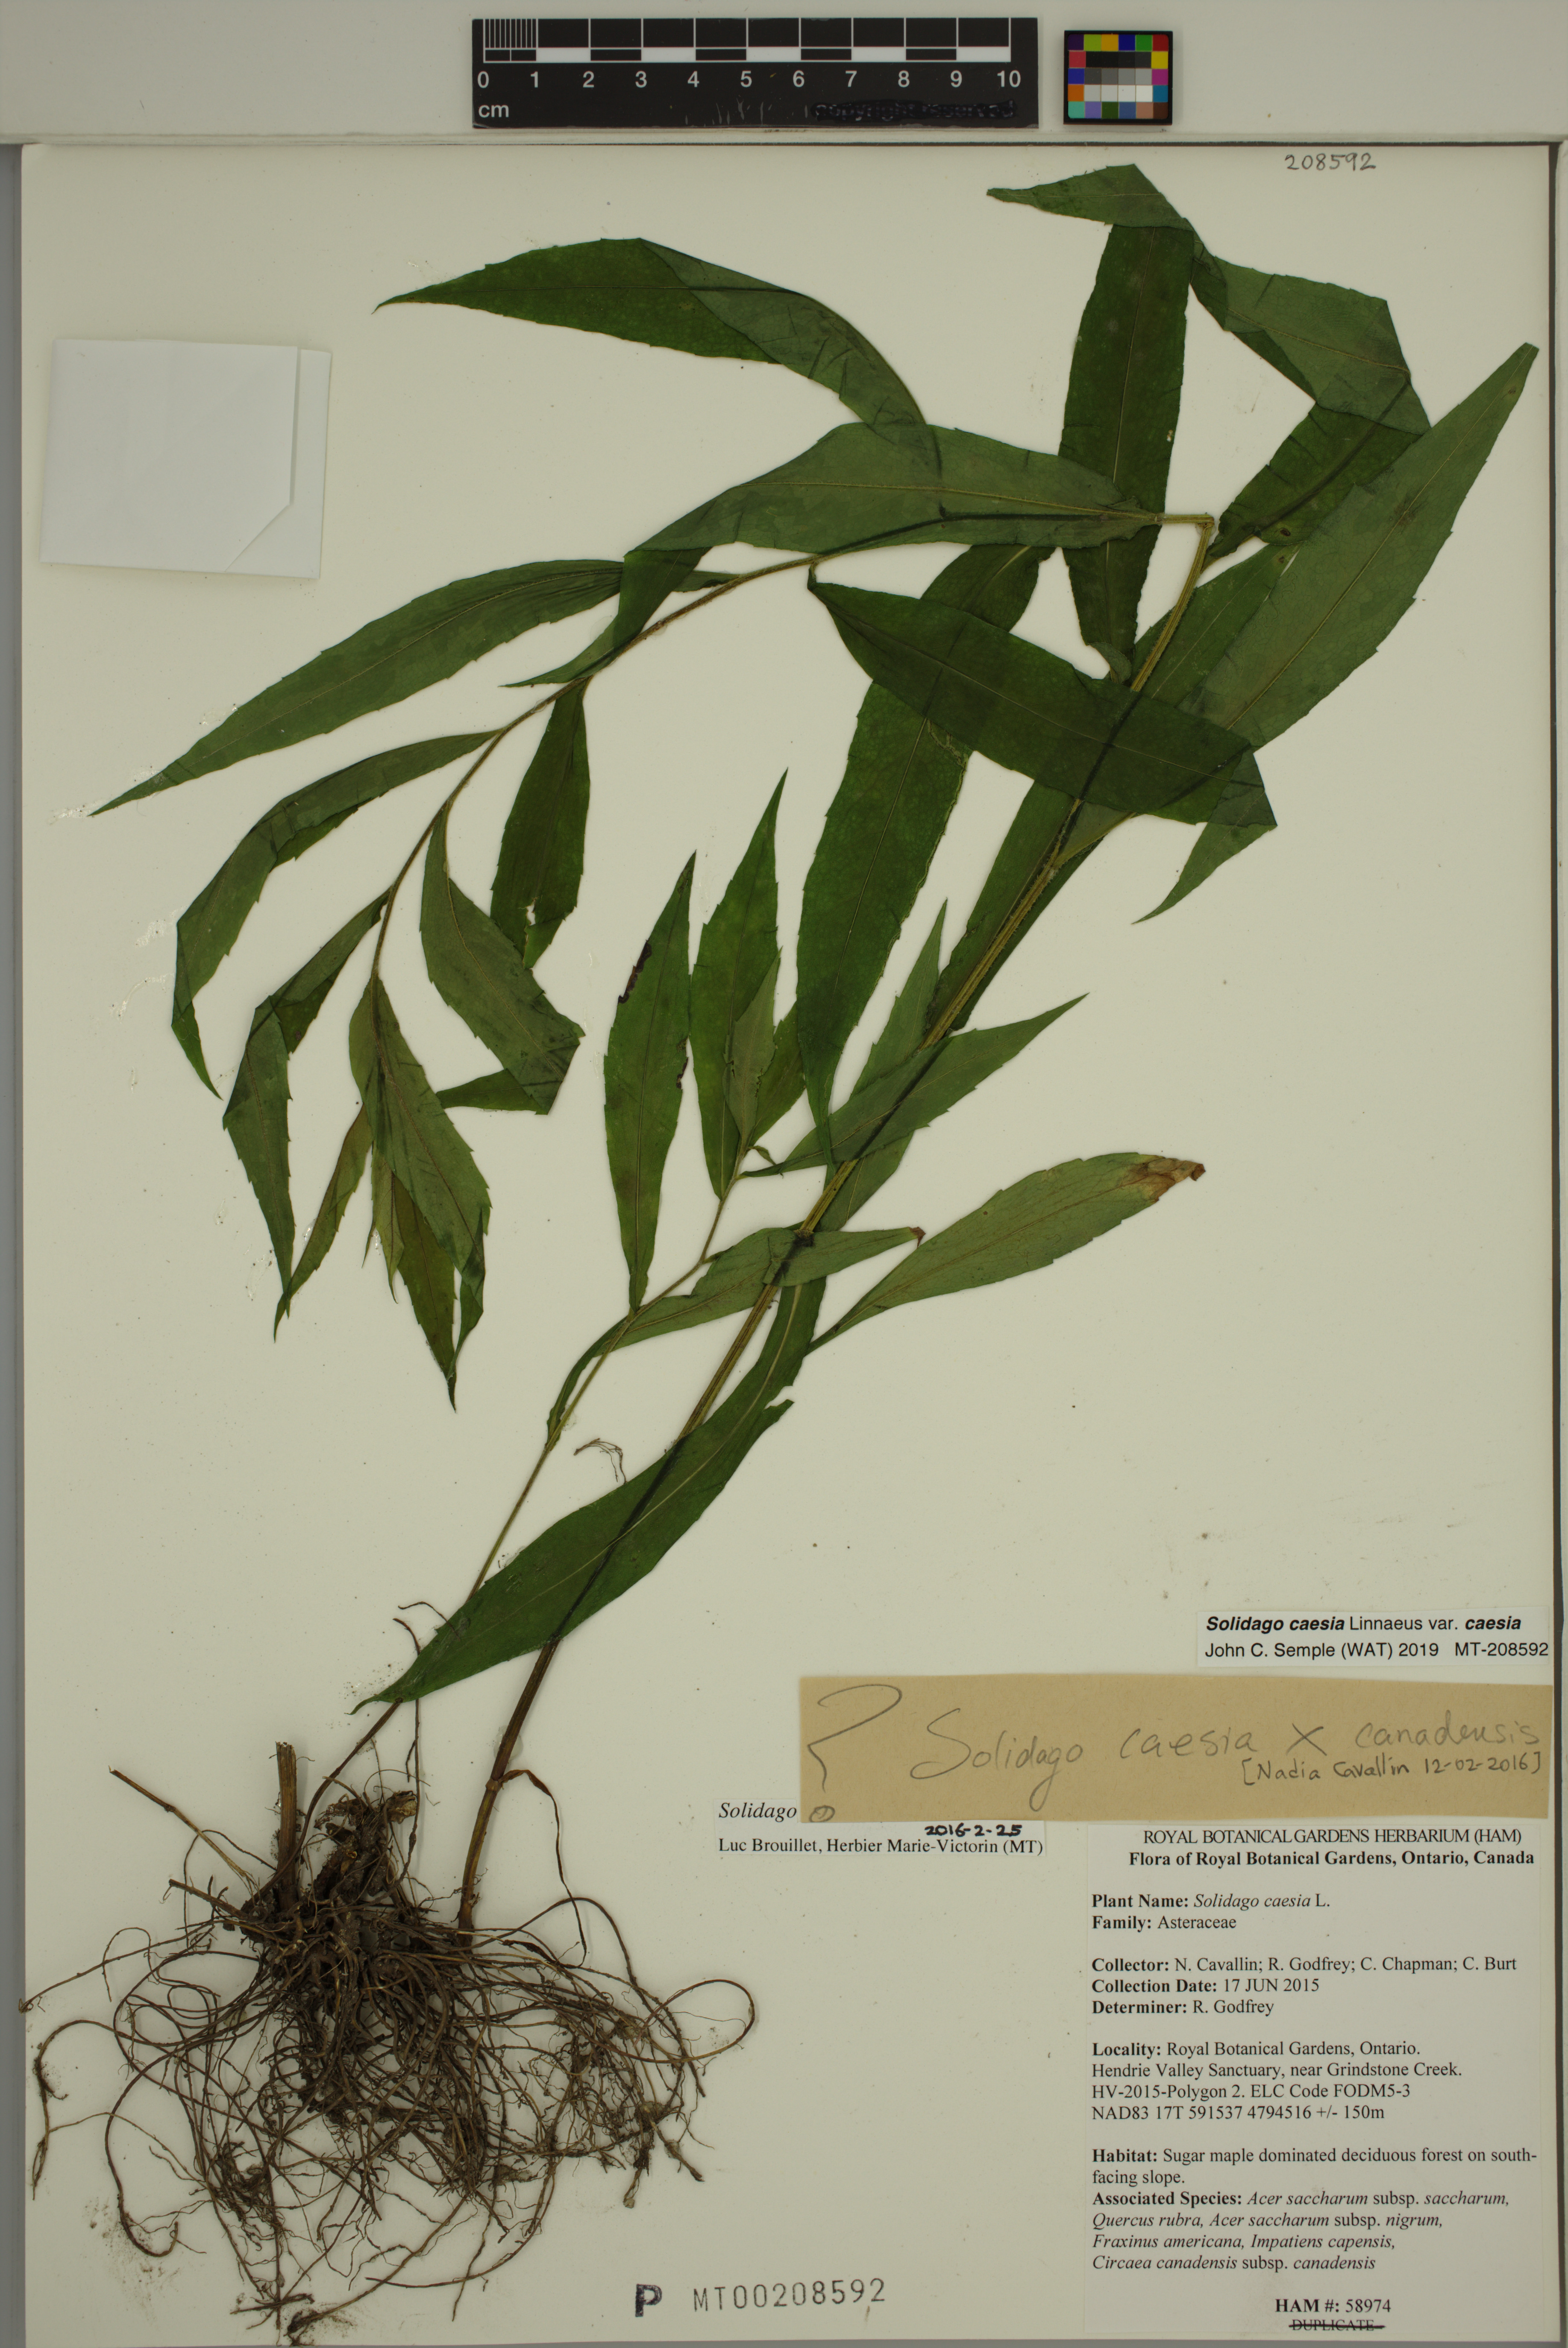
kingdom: Plantae
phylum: Tracheophyta
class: Magnoliopsida
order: Asterales
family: Asteraceae
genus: Solidago
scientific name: Solidago caesia
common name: Woodland goldenrod
